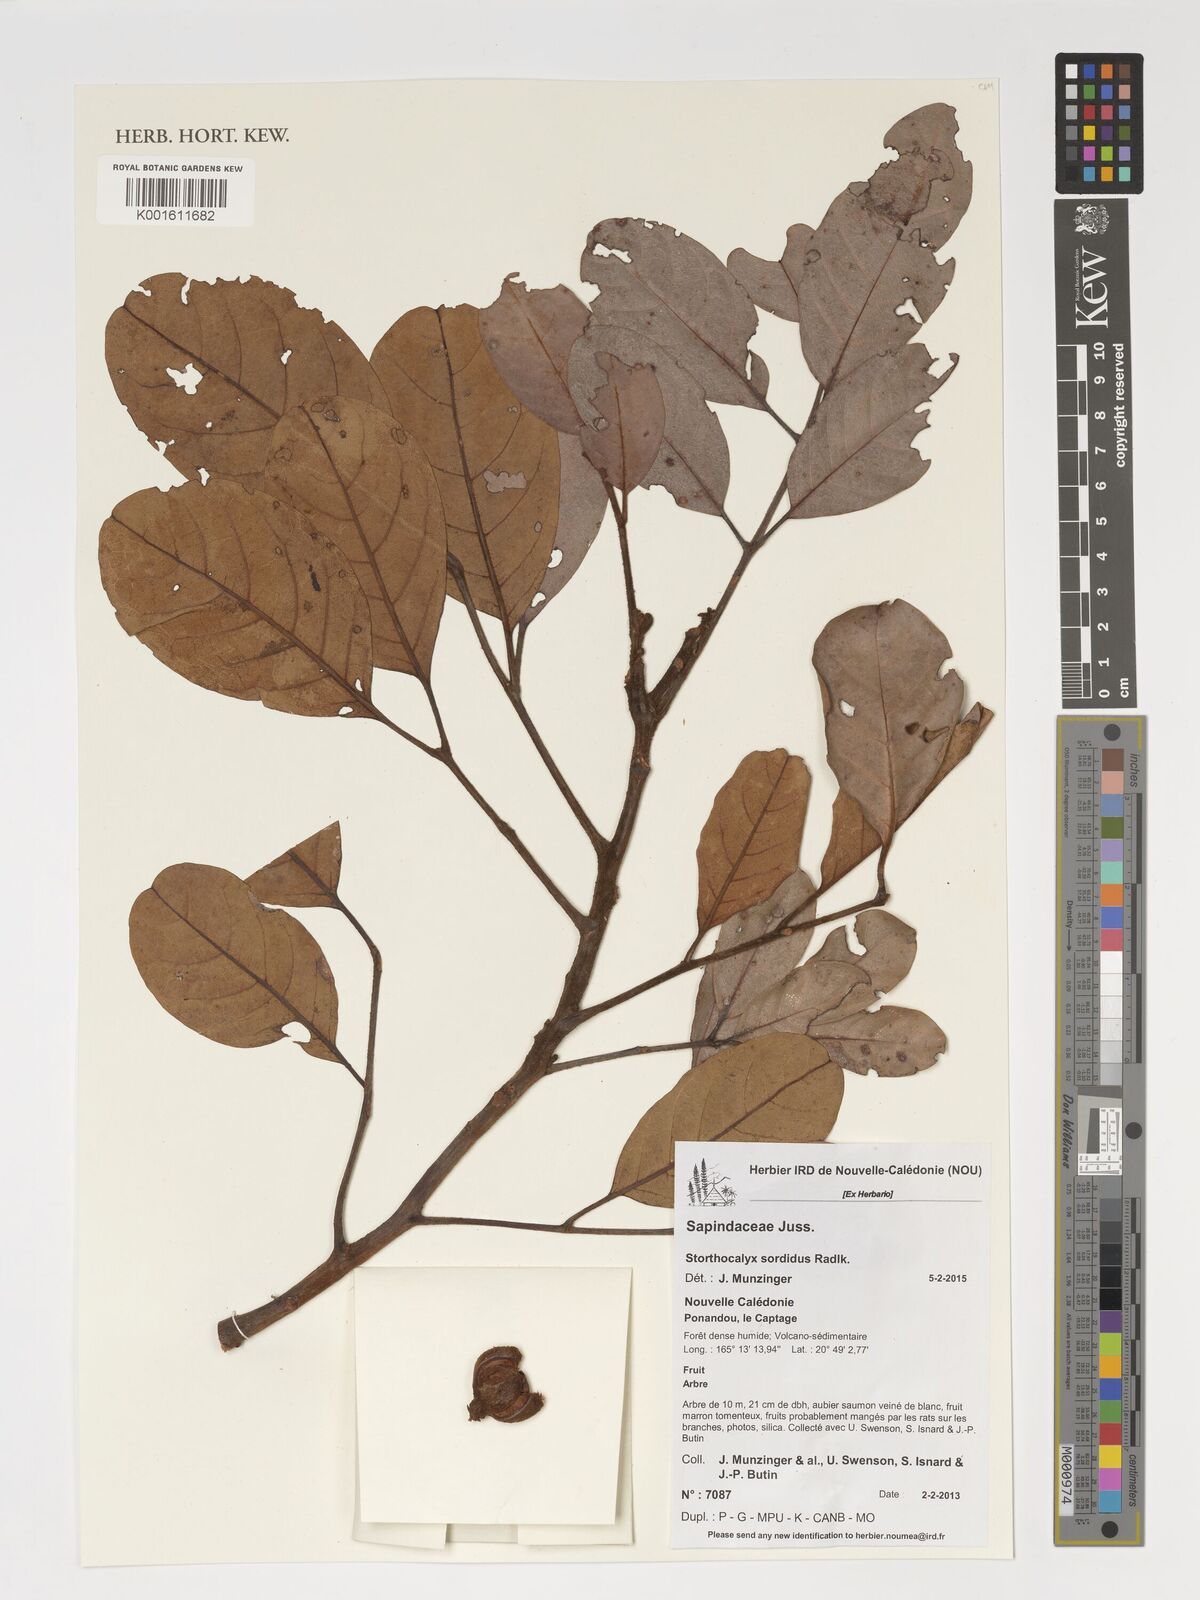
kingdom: Plantae
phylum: Tracheophyta
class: Magnoliopsida
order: Sapindales
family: Sapindaceae
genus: Storthocalyx
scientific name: Storthocalyx sordidus
